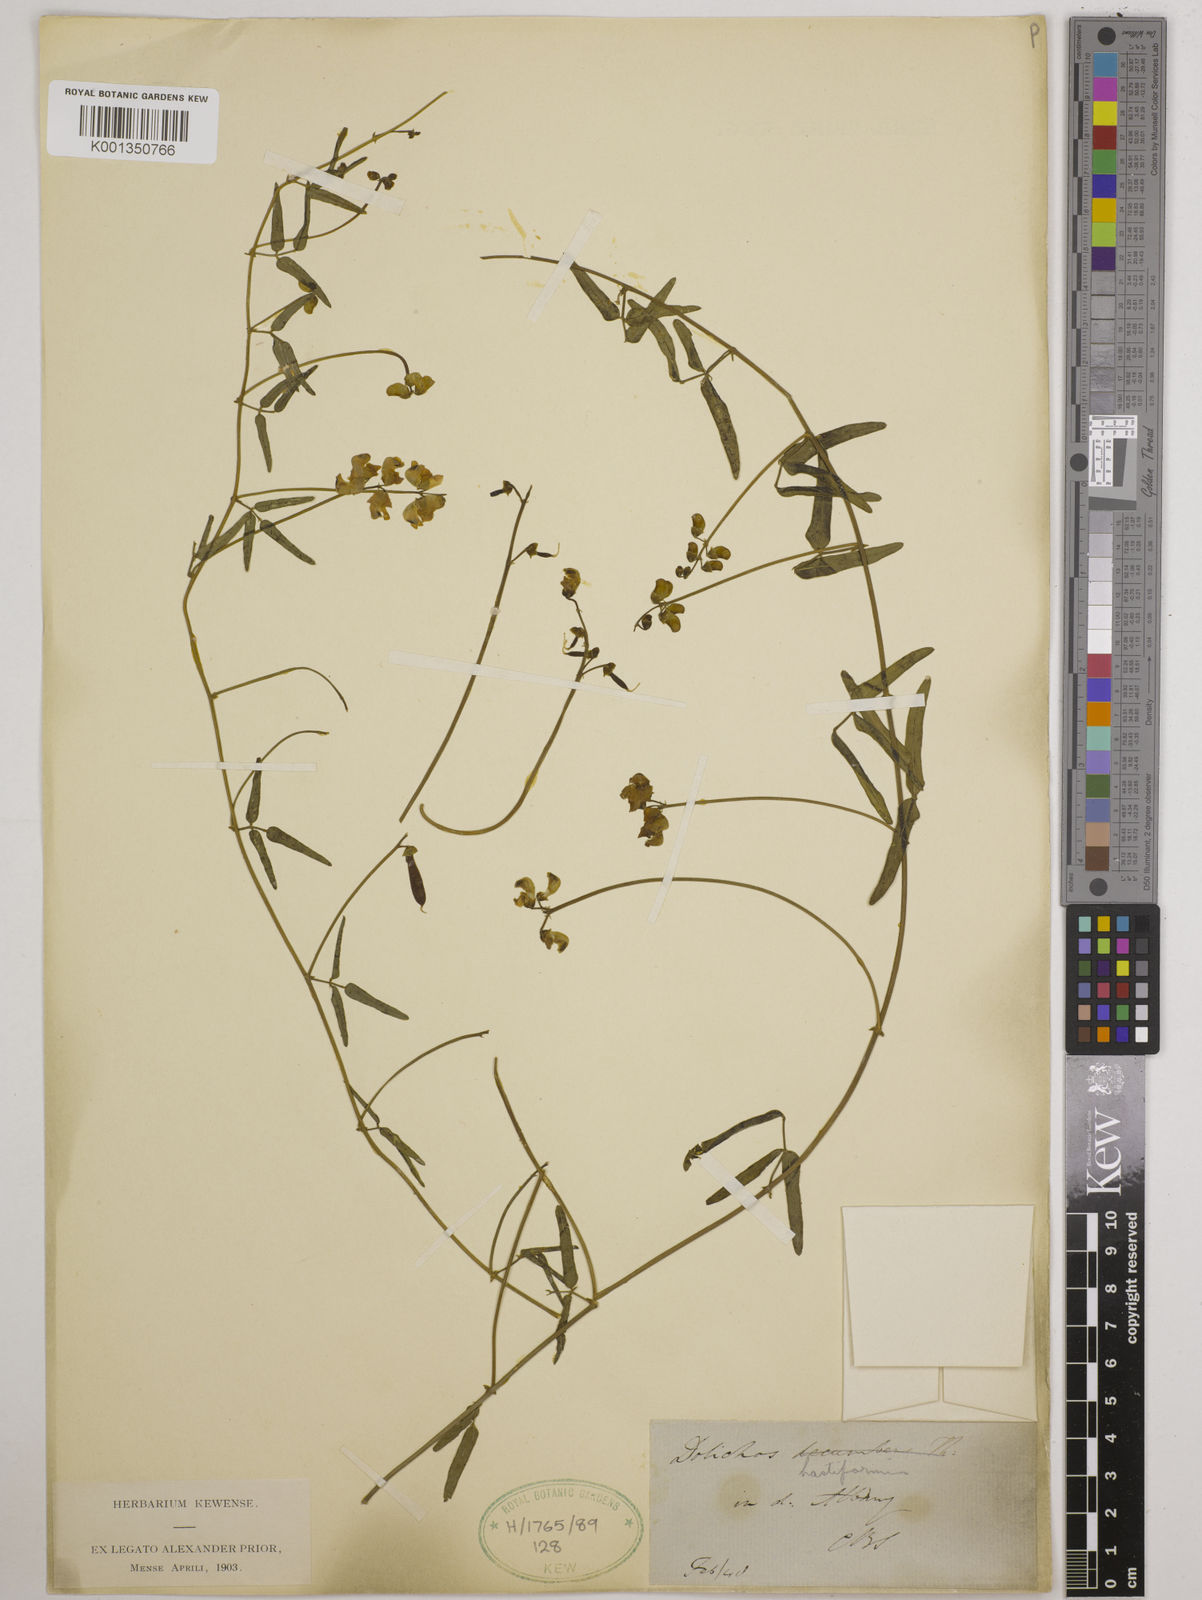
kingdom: Plantae
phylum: Tracheophyta
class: Magnoliopsida
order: Fabales
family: Fabaceae
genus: Dolichos
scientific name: Dolichos
